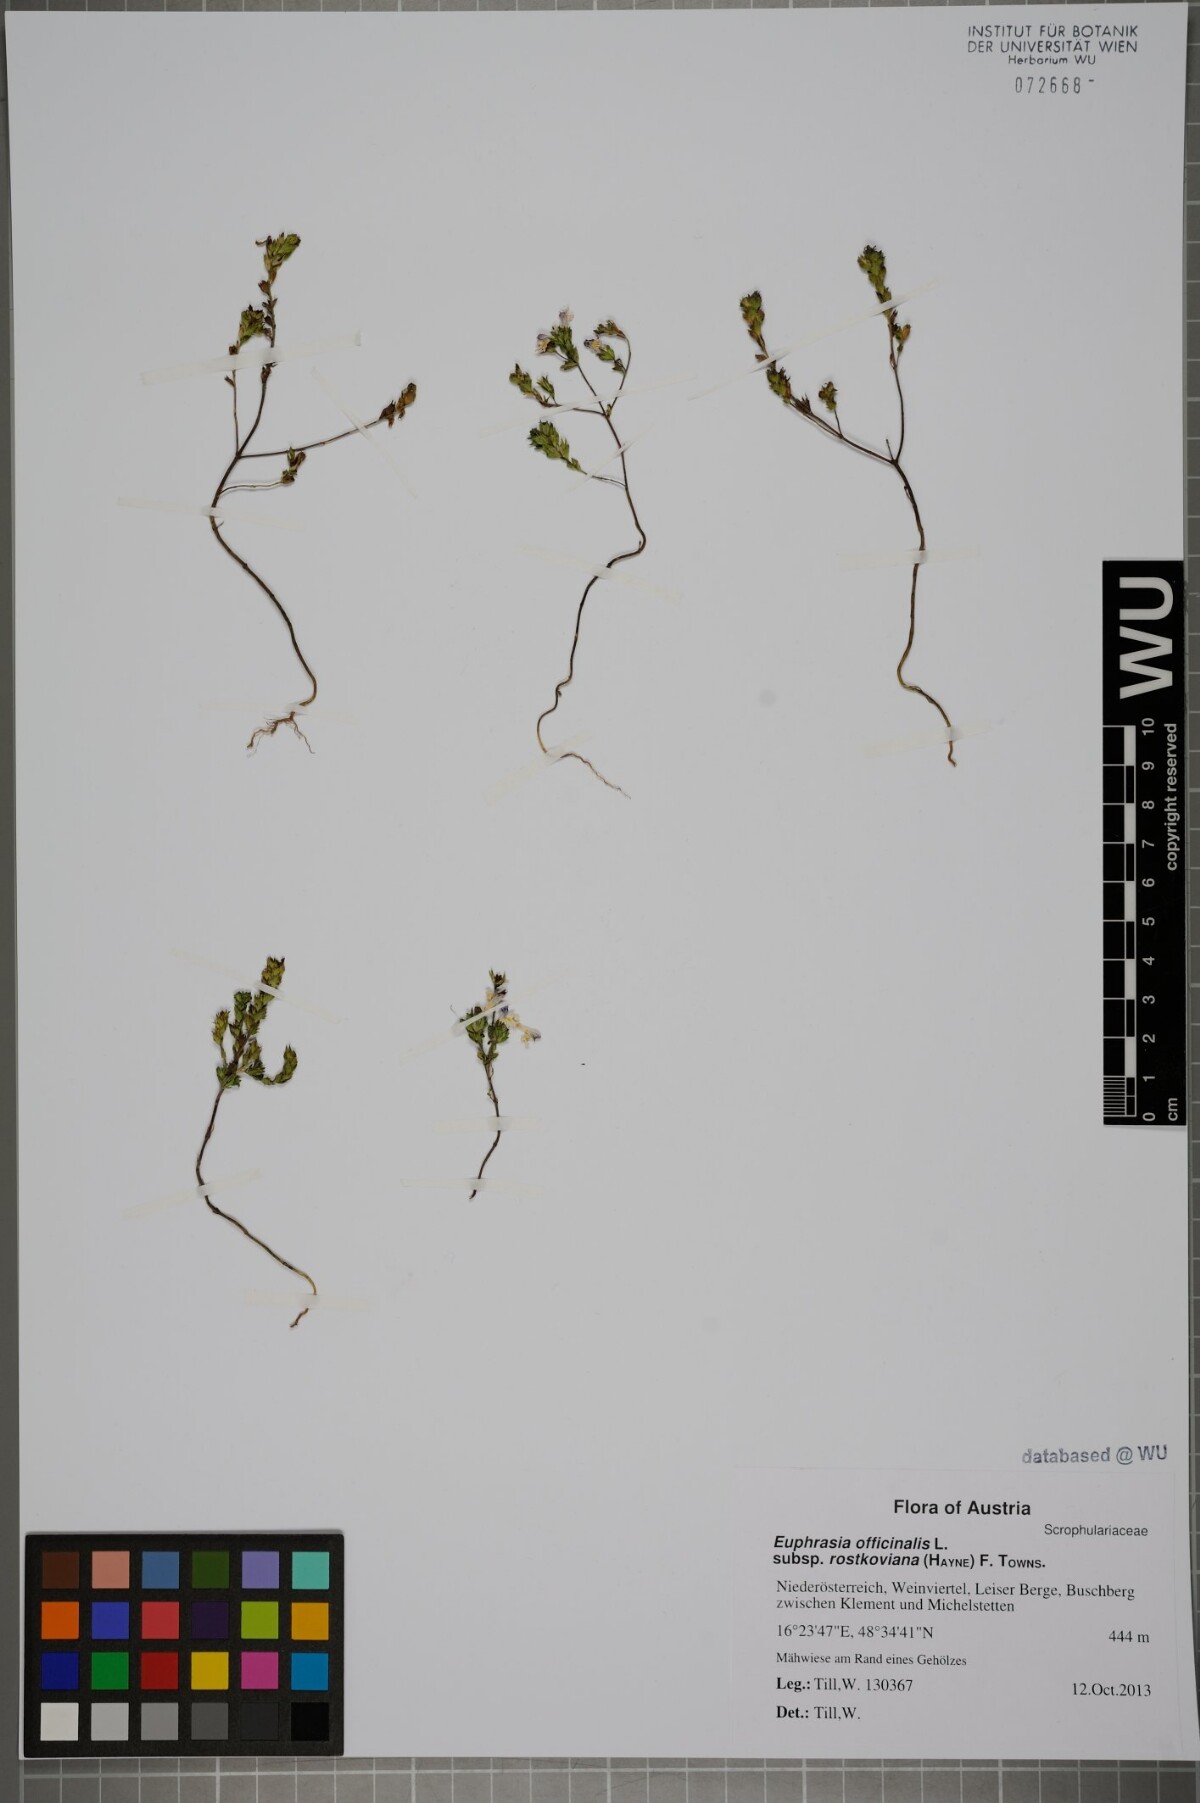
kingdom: Plantae
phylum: Tracheophyta
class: Magnoliopsida
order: Lamiales
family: Orobanchaceae
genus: Euphrasia
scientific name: Euphrasia officinalis
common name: Eyebright
